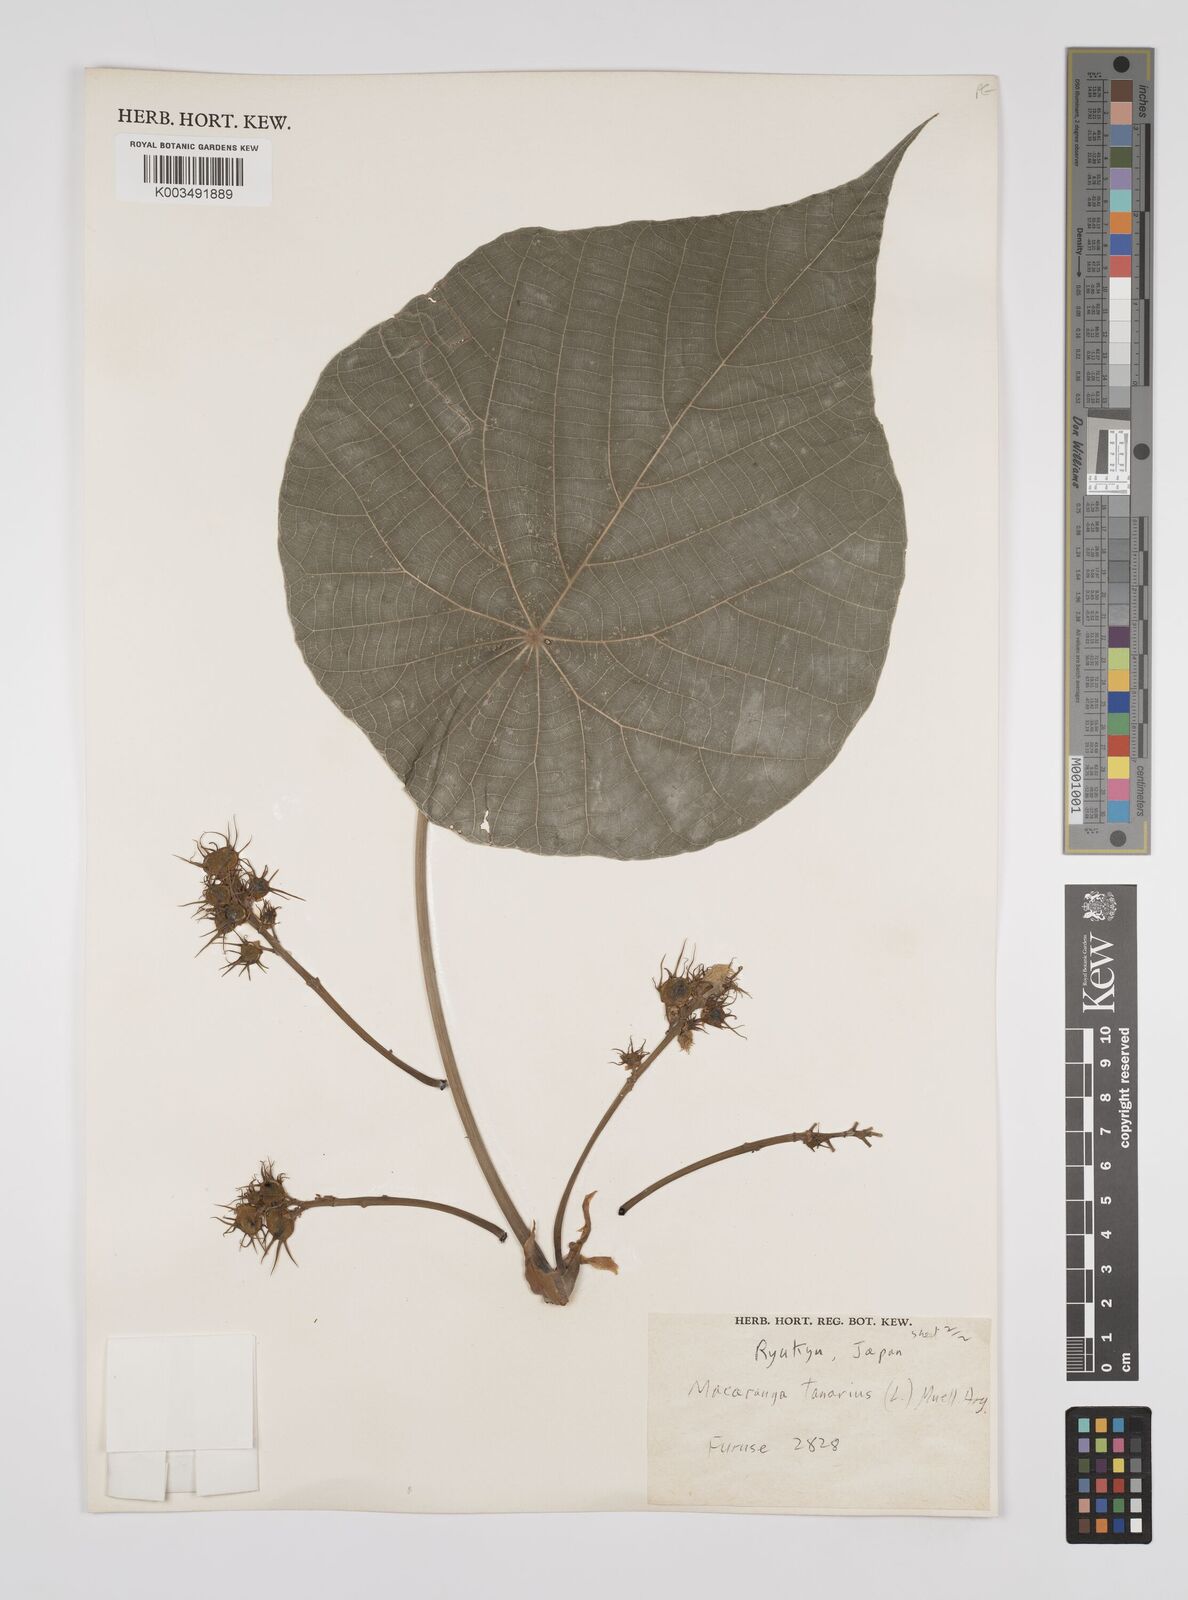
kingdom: Plantae
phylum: Tracheophyta
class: Magnoliopsida
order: Malpighiales
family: Euphorbiaceae
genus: Macaranga
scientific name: Macaranga tanarius
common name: Parasol leaf tree
